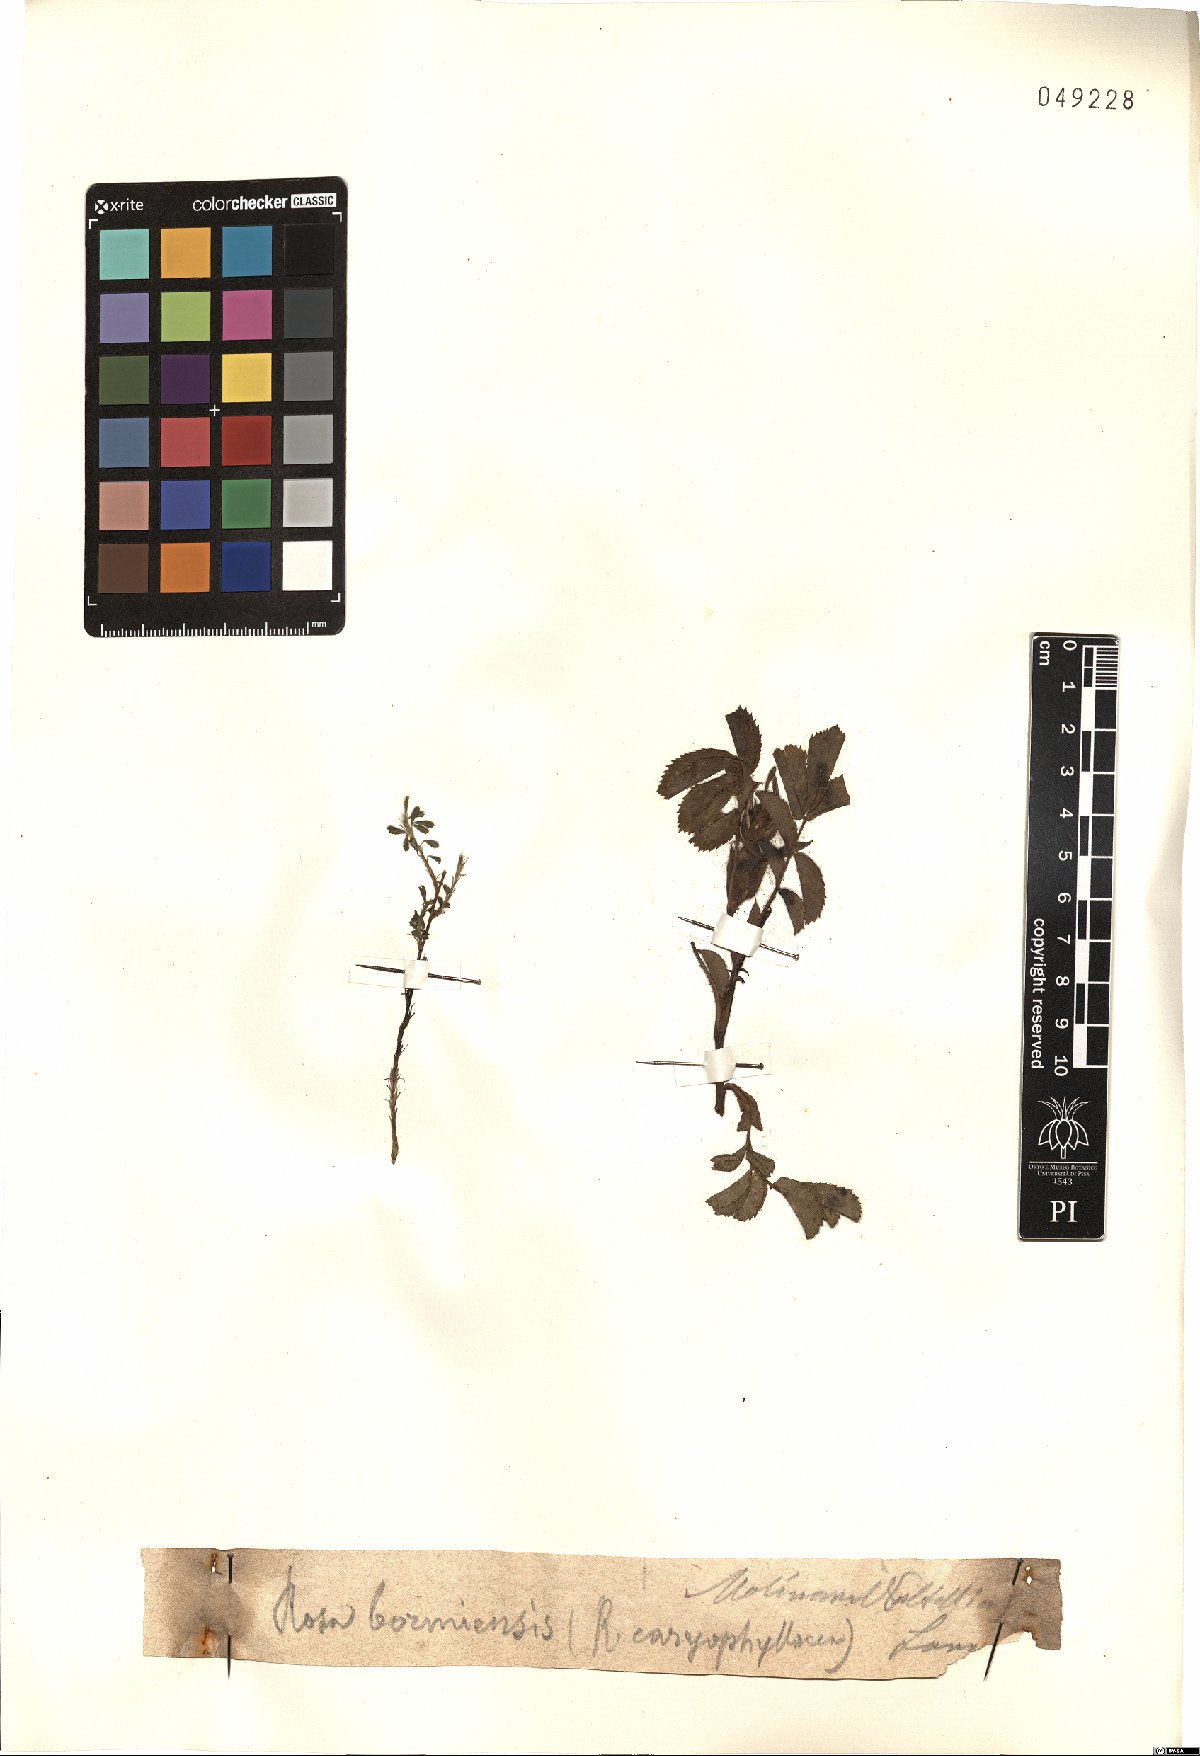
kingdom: Plantae
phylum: Tracheophyta
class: Magnoliopsida
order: Rosales
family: Rosaceae
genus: Rosa
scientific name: Rosa caryophyllacea
